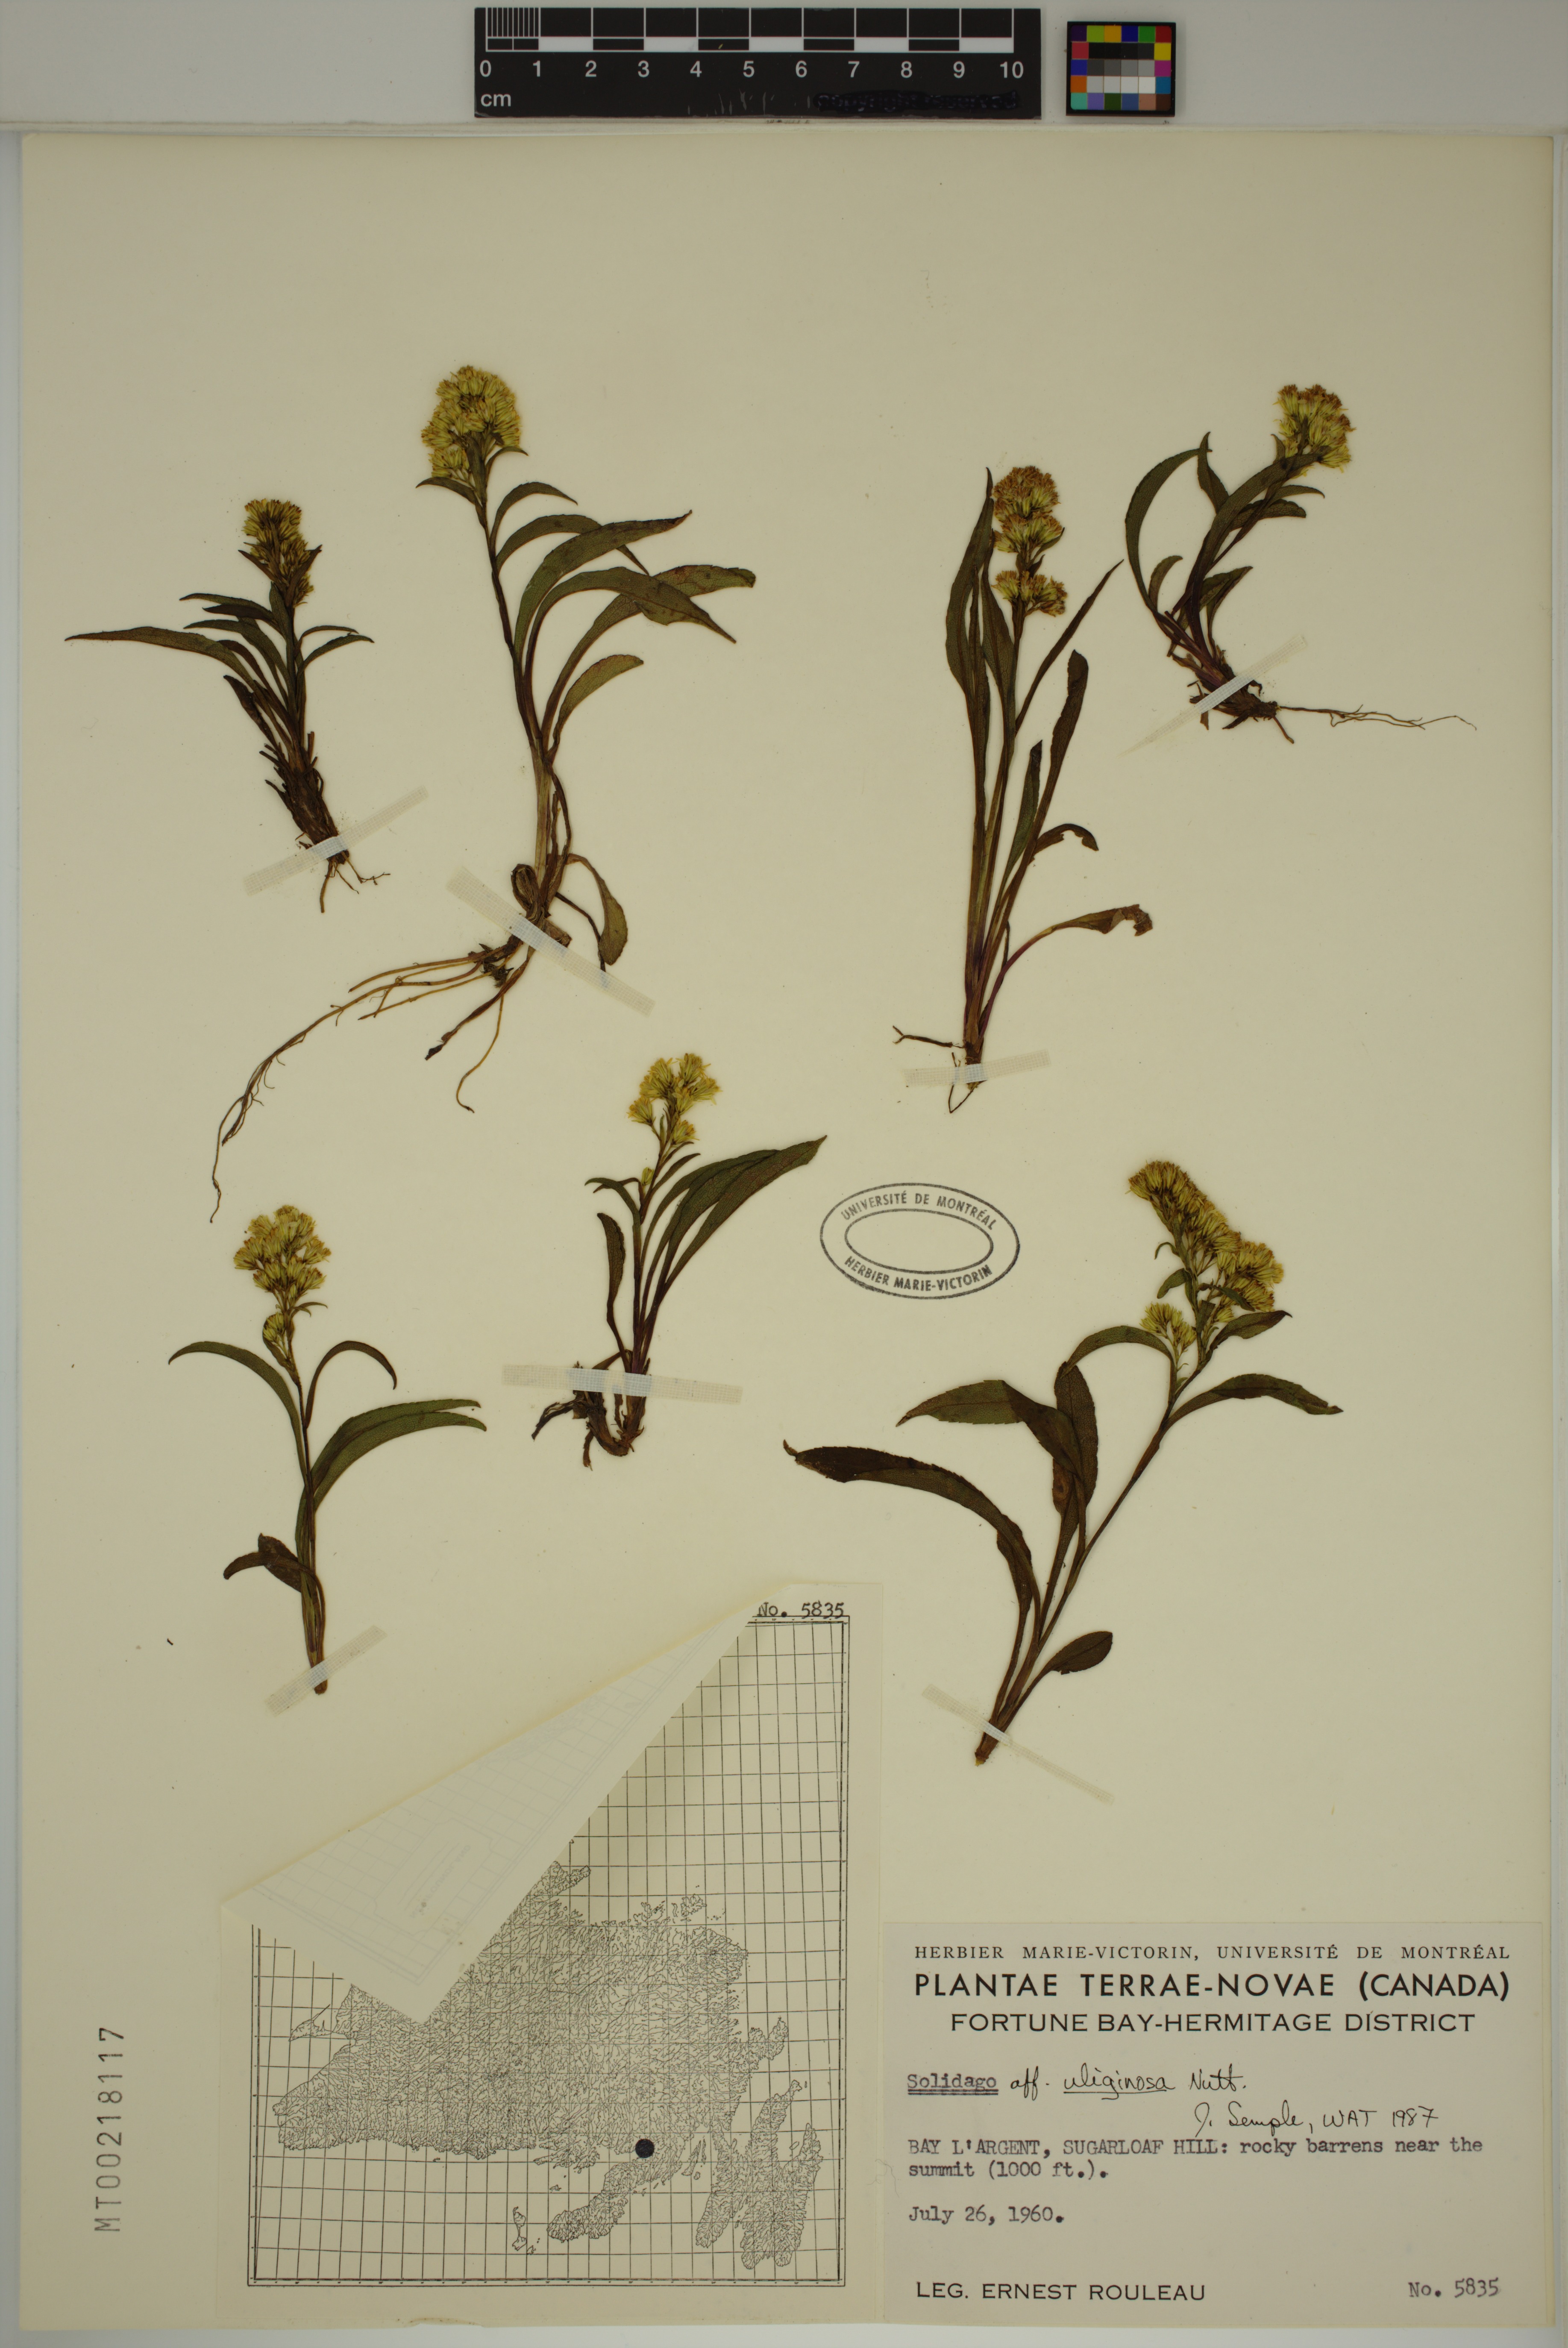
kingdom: Plantae
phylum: Tracheophyta
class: Magnoliopsida
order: Asterales
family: Asteraceae
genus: Solidago
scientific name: Solidago uliginosa
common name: Bog goldenrod
